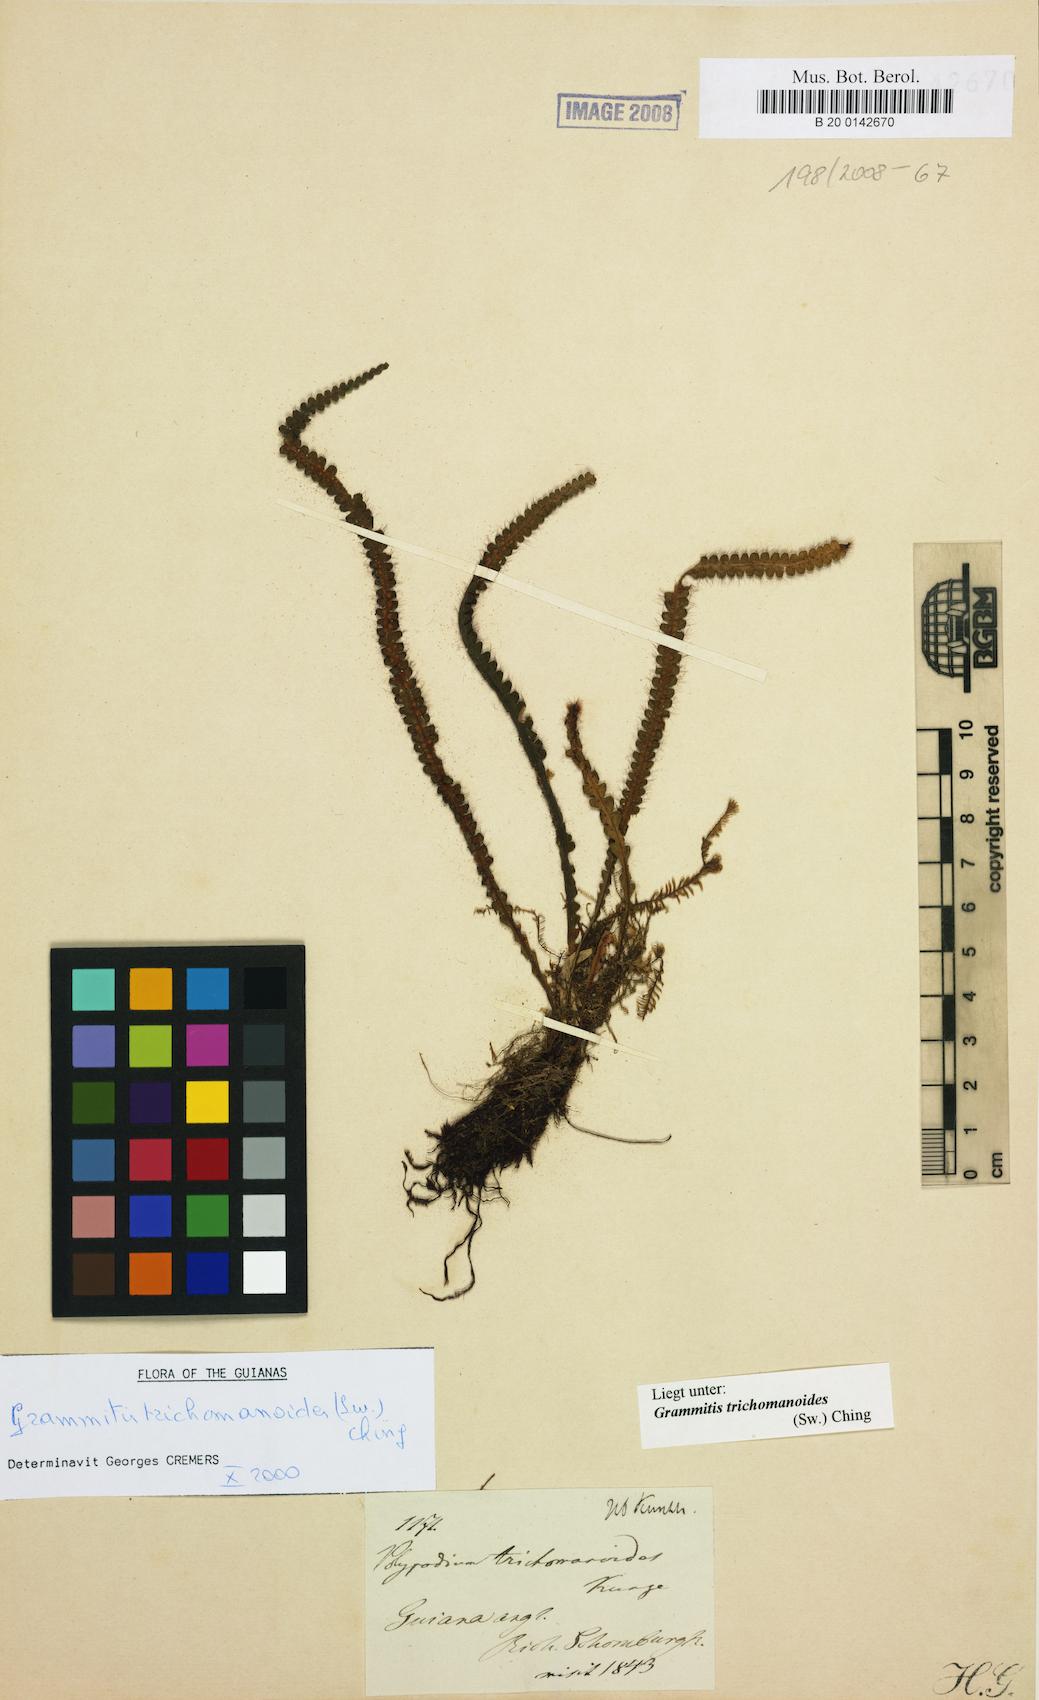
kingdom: Plantae
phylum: Tracheophyta
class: Polypodiopsida
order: Polypodiales
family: Polypodiaceae
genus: Moranopteris
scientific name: Moranopteris truncicola
